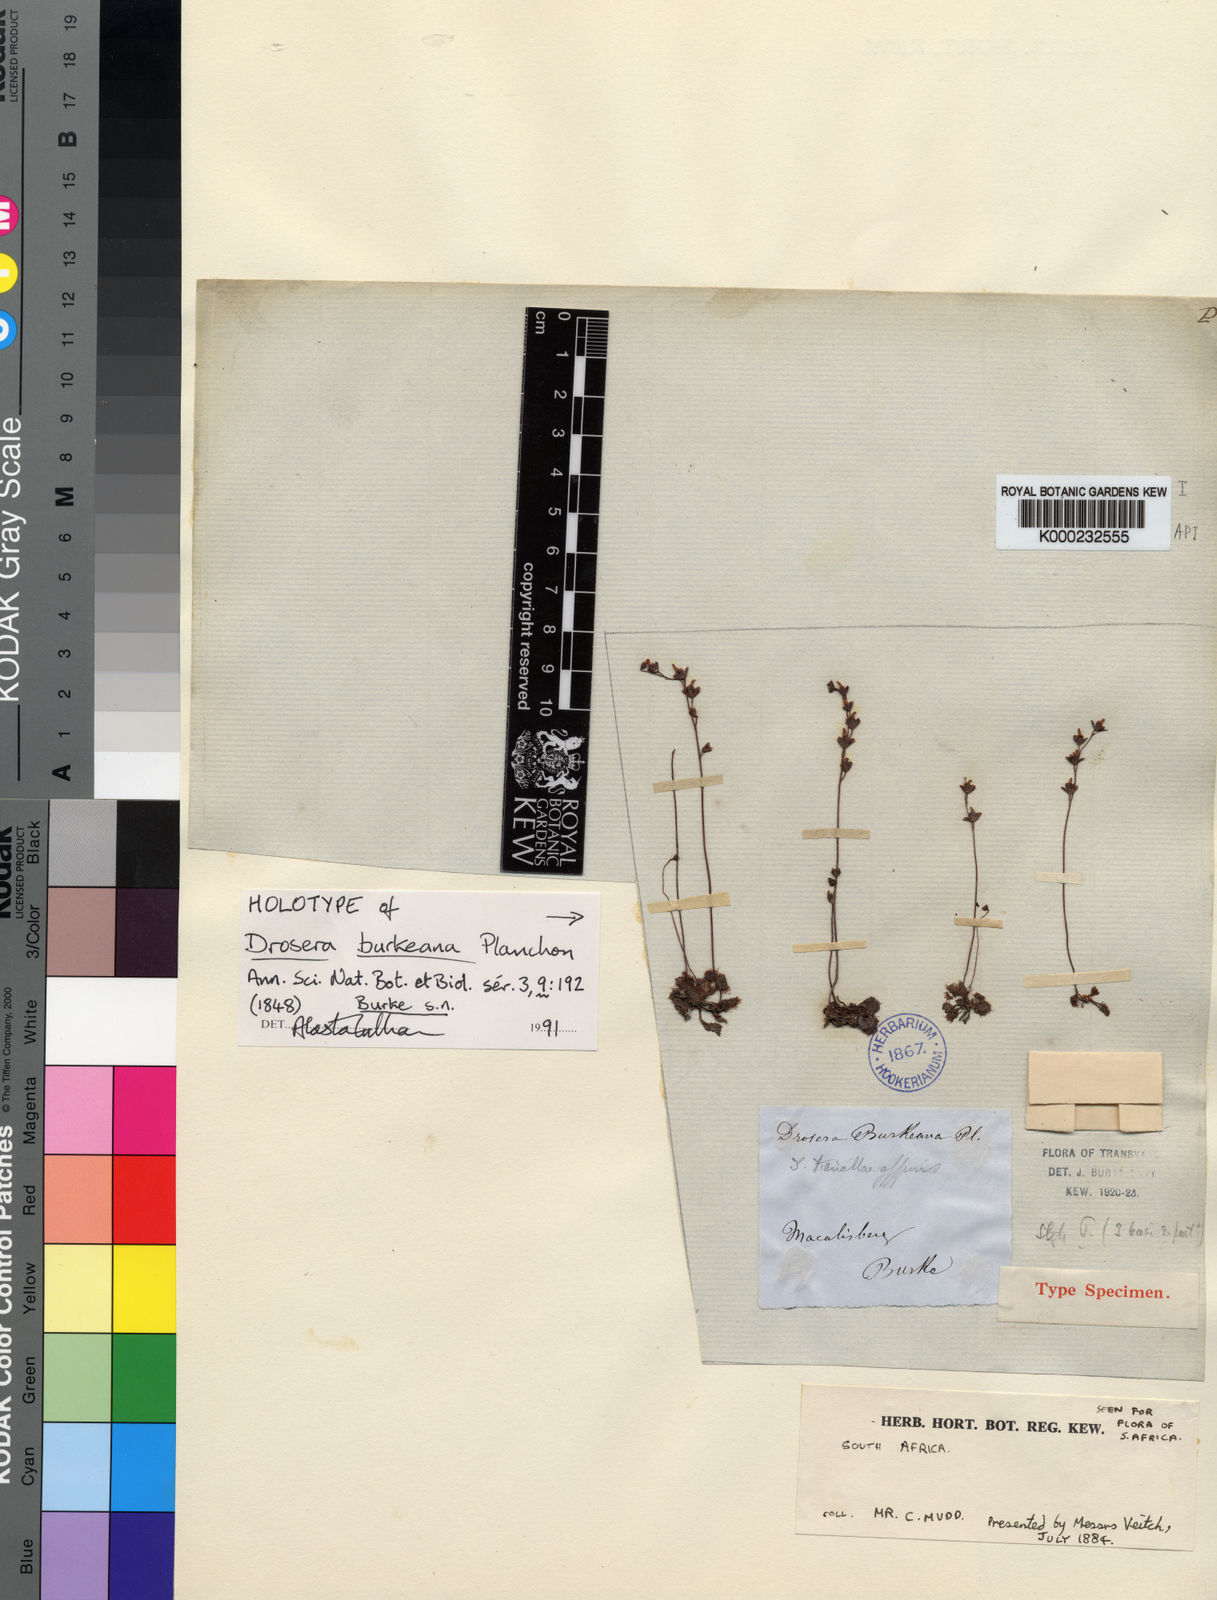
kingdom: Plantae
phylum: Tracheophyta
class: Magnoliopsida
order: Caryophyllales
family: Droseraceae
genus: Drosera
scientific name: Drosera burkeana
